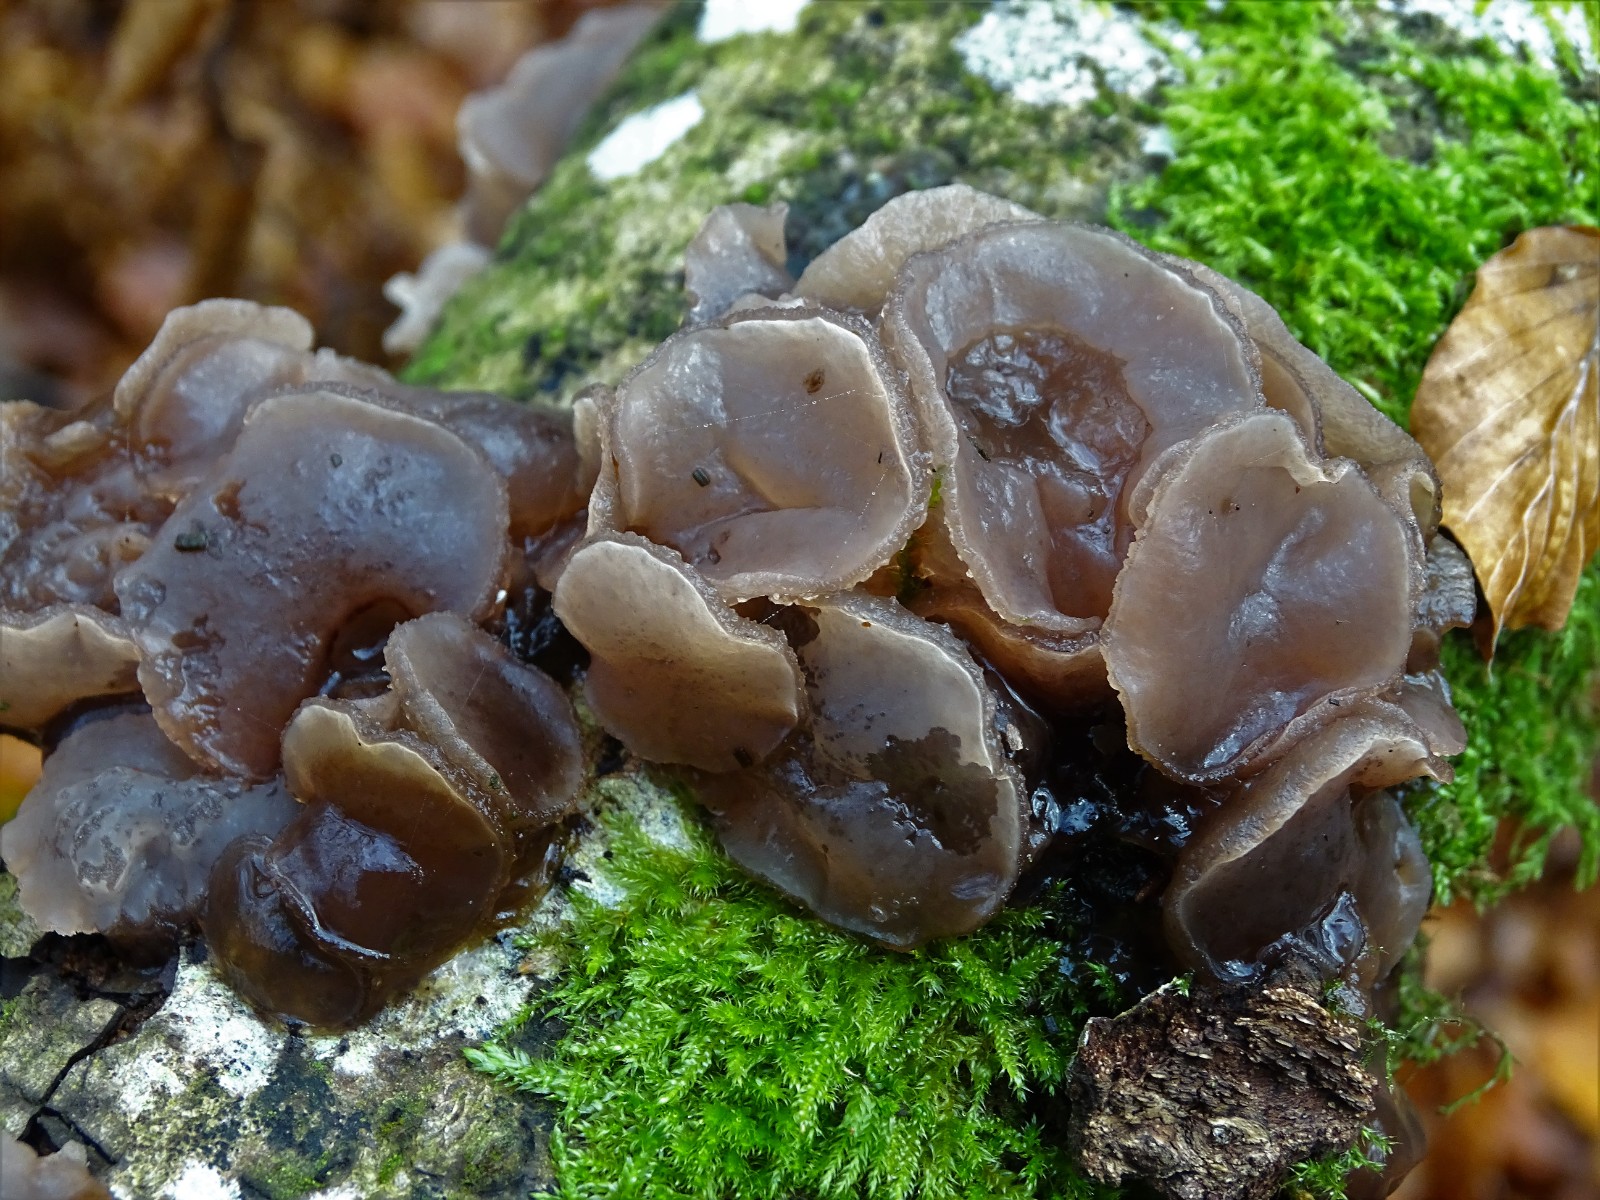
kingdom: Fungi
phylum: Ascomycota
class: Leotiomycetes
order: Helotiales
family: Gelatinodiscaceae
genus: Neobulgaria
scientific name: Neobulgaria pura
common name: bleg bævreskive
